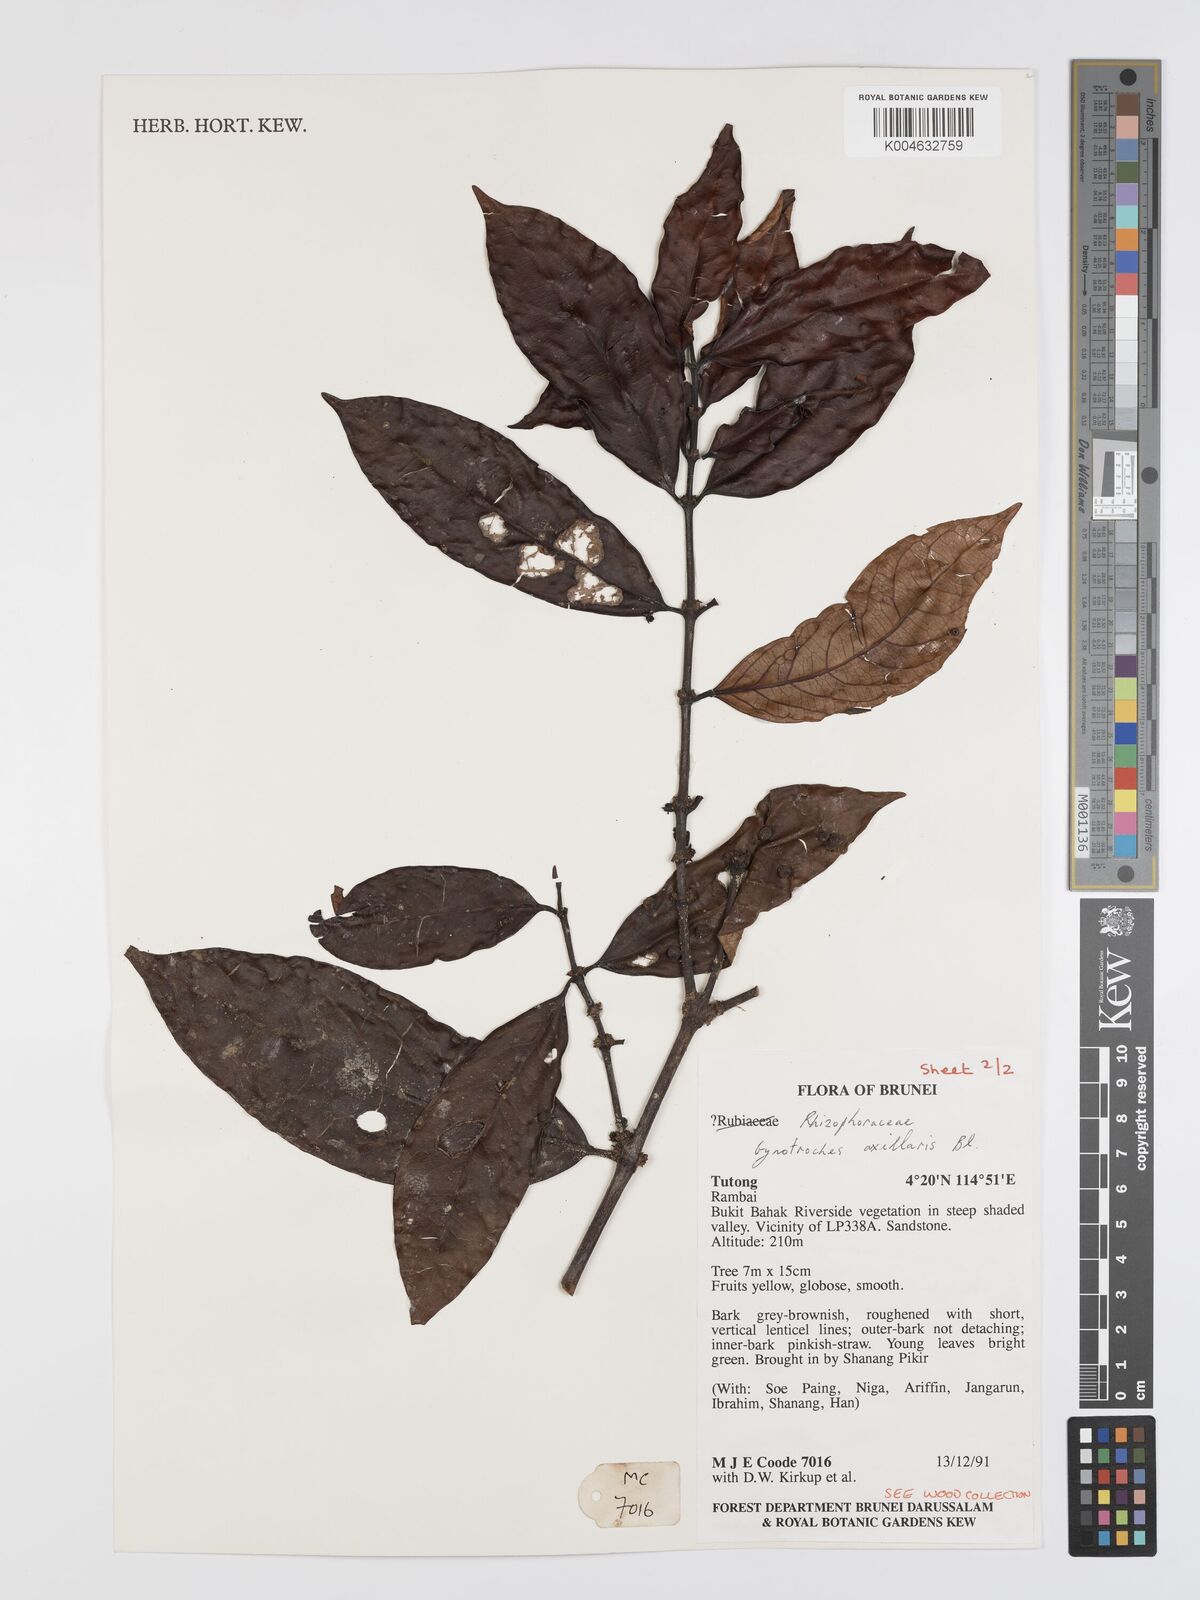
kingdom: Plantae
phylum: Tracheophyta
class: Magnoliopsida
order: Malpighiales
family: Rhizophoraceae
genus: Gynotroches
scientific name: Gynotroches axillaris
